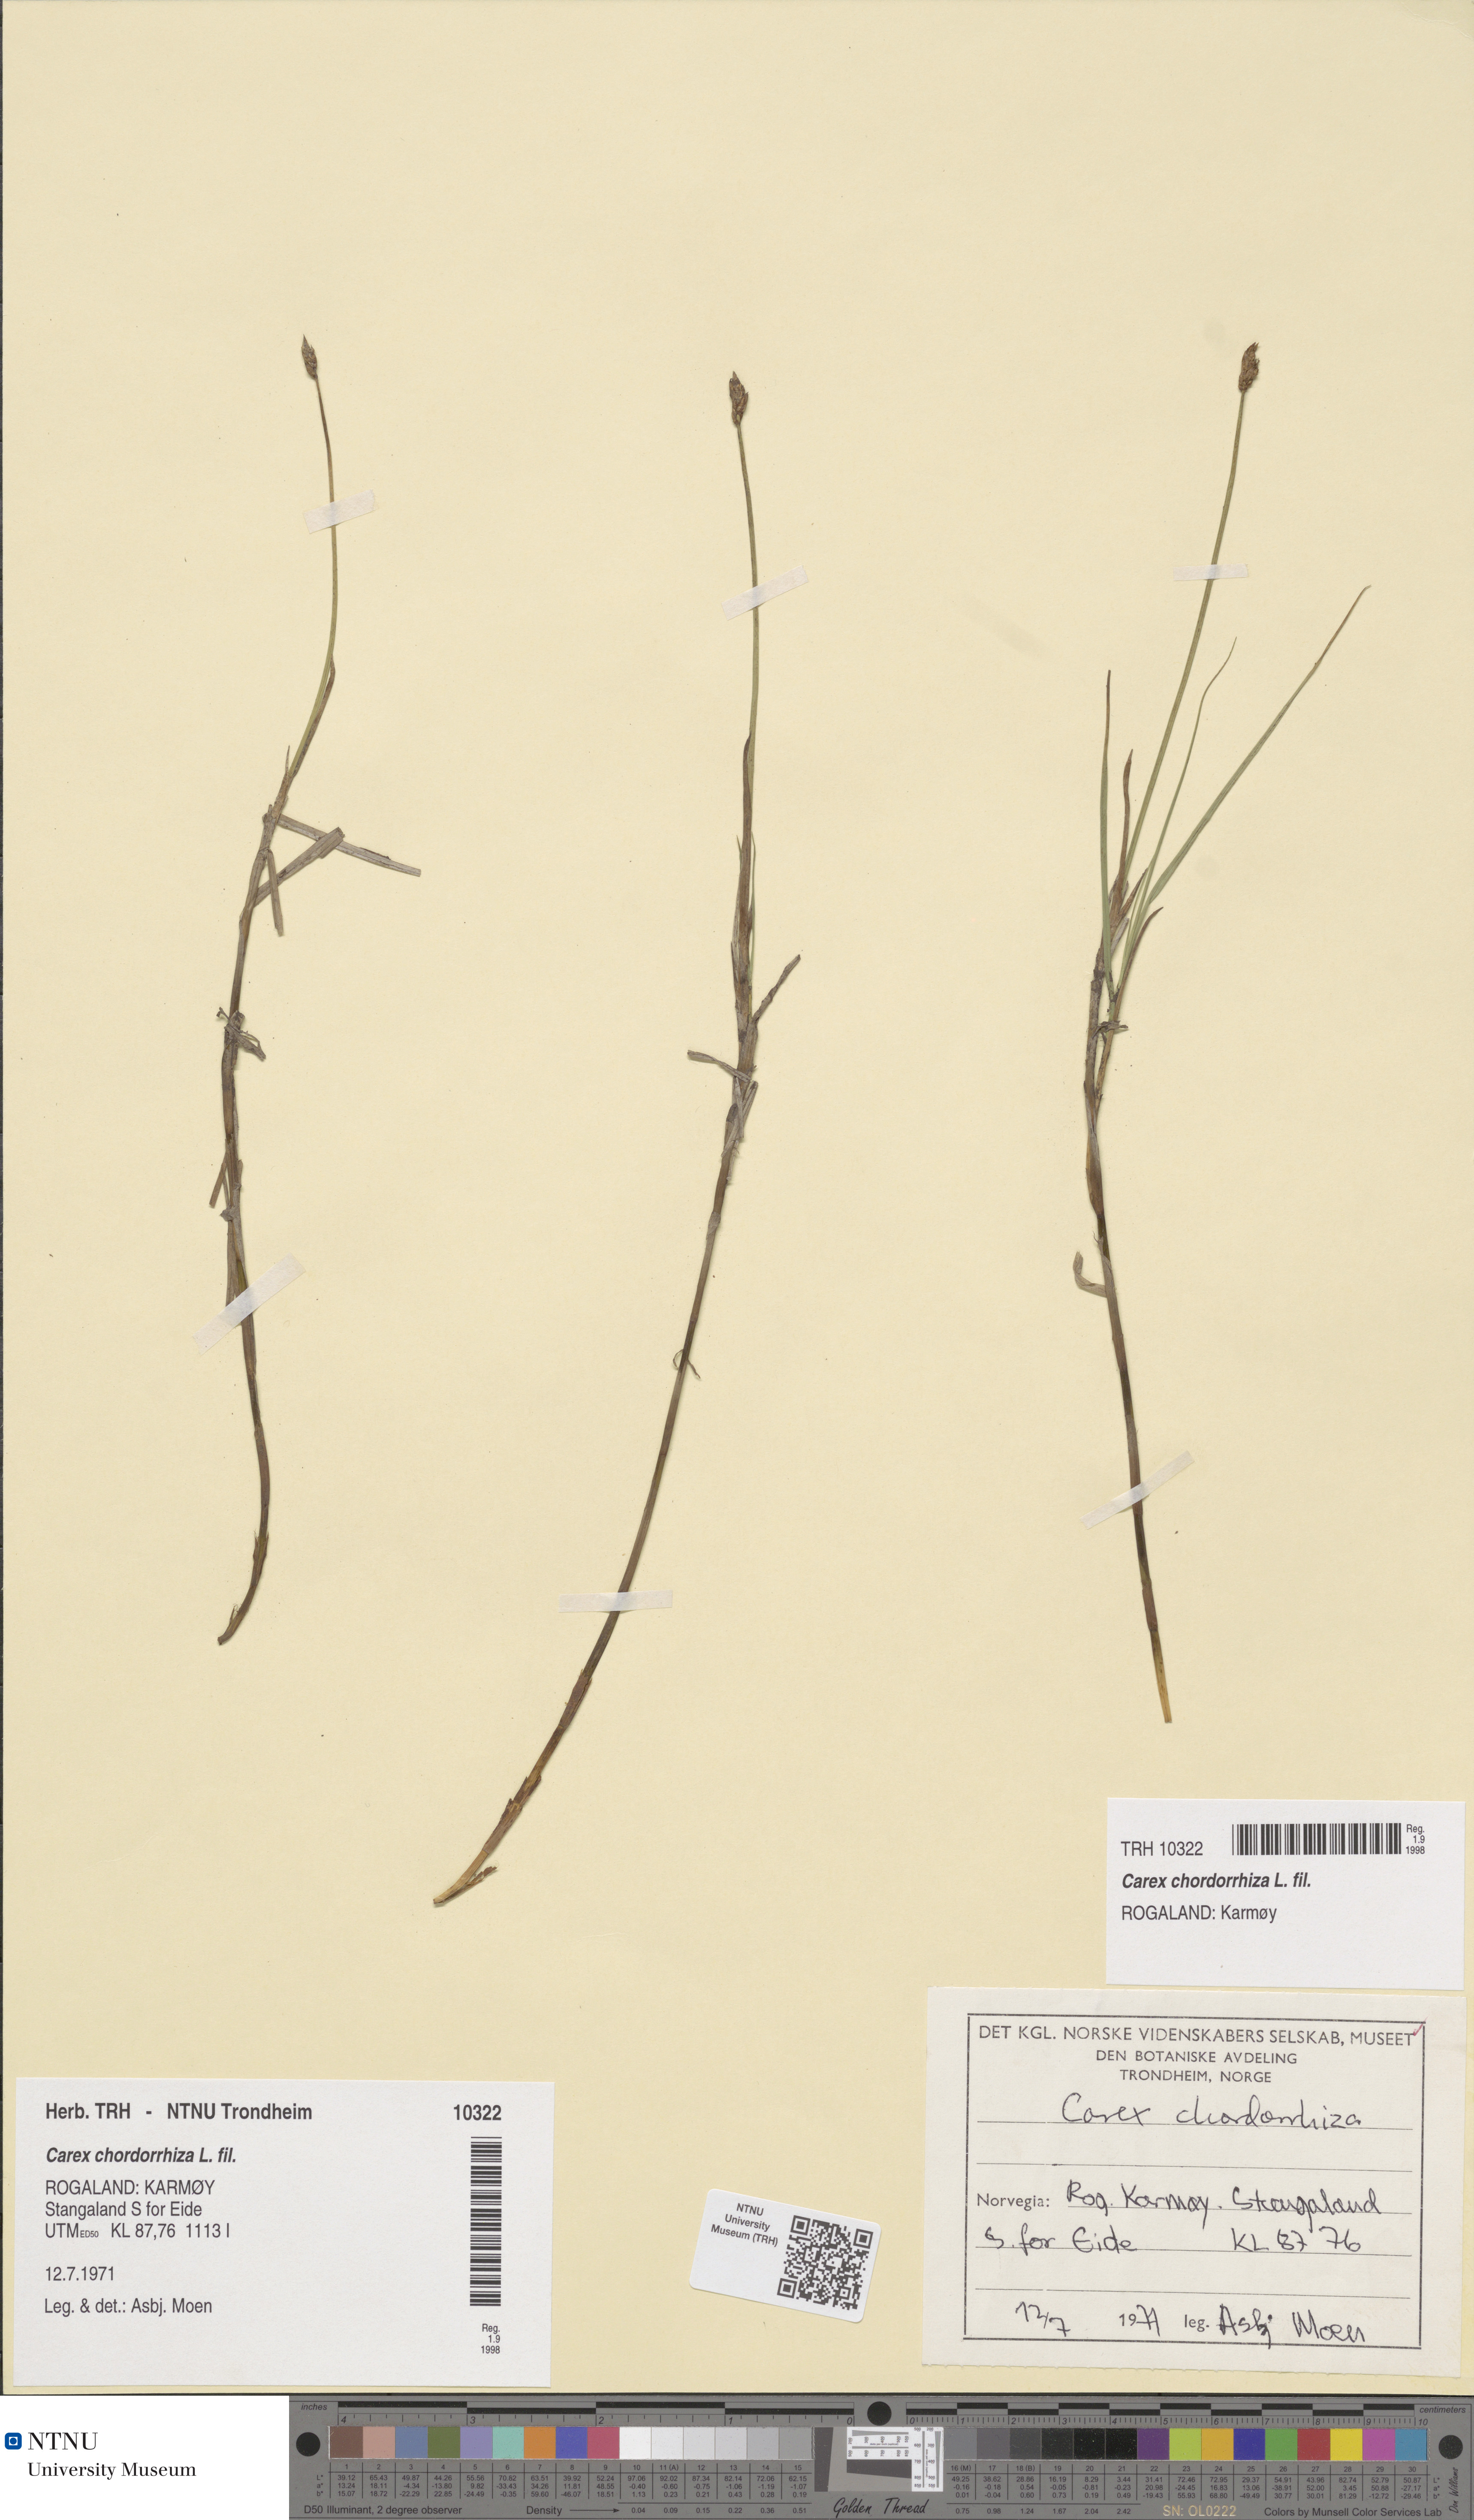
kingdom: Plantae
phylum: Tracheophyta
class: Liliopsida
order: Poales
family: Cyperaceae
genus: Carex
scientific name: Carex chordorrhiza
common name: String sedge
